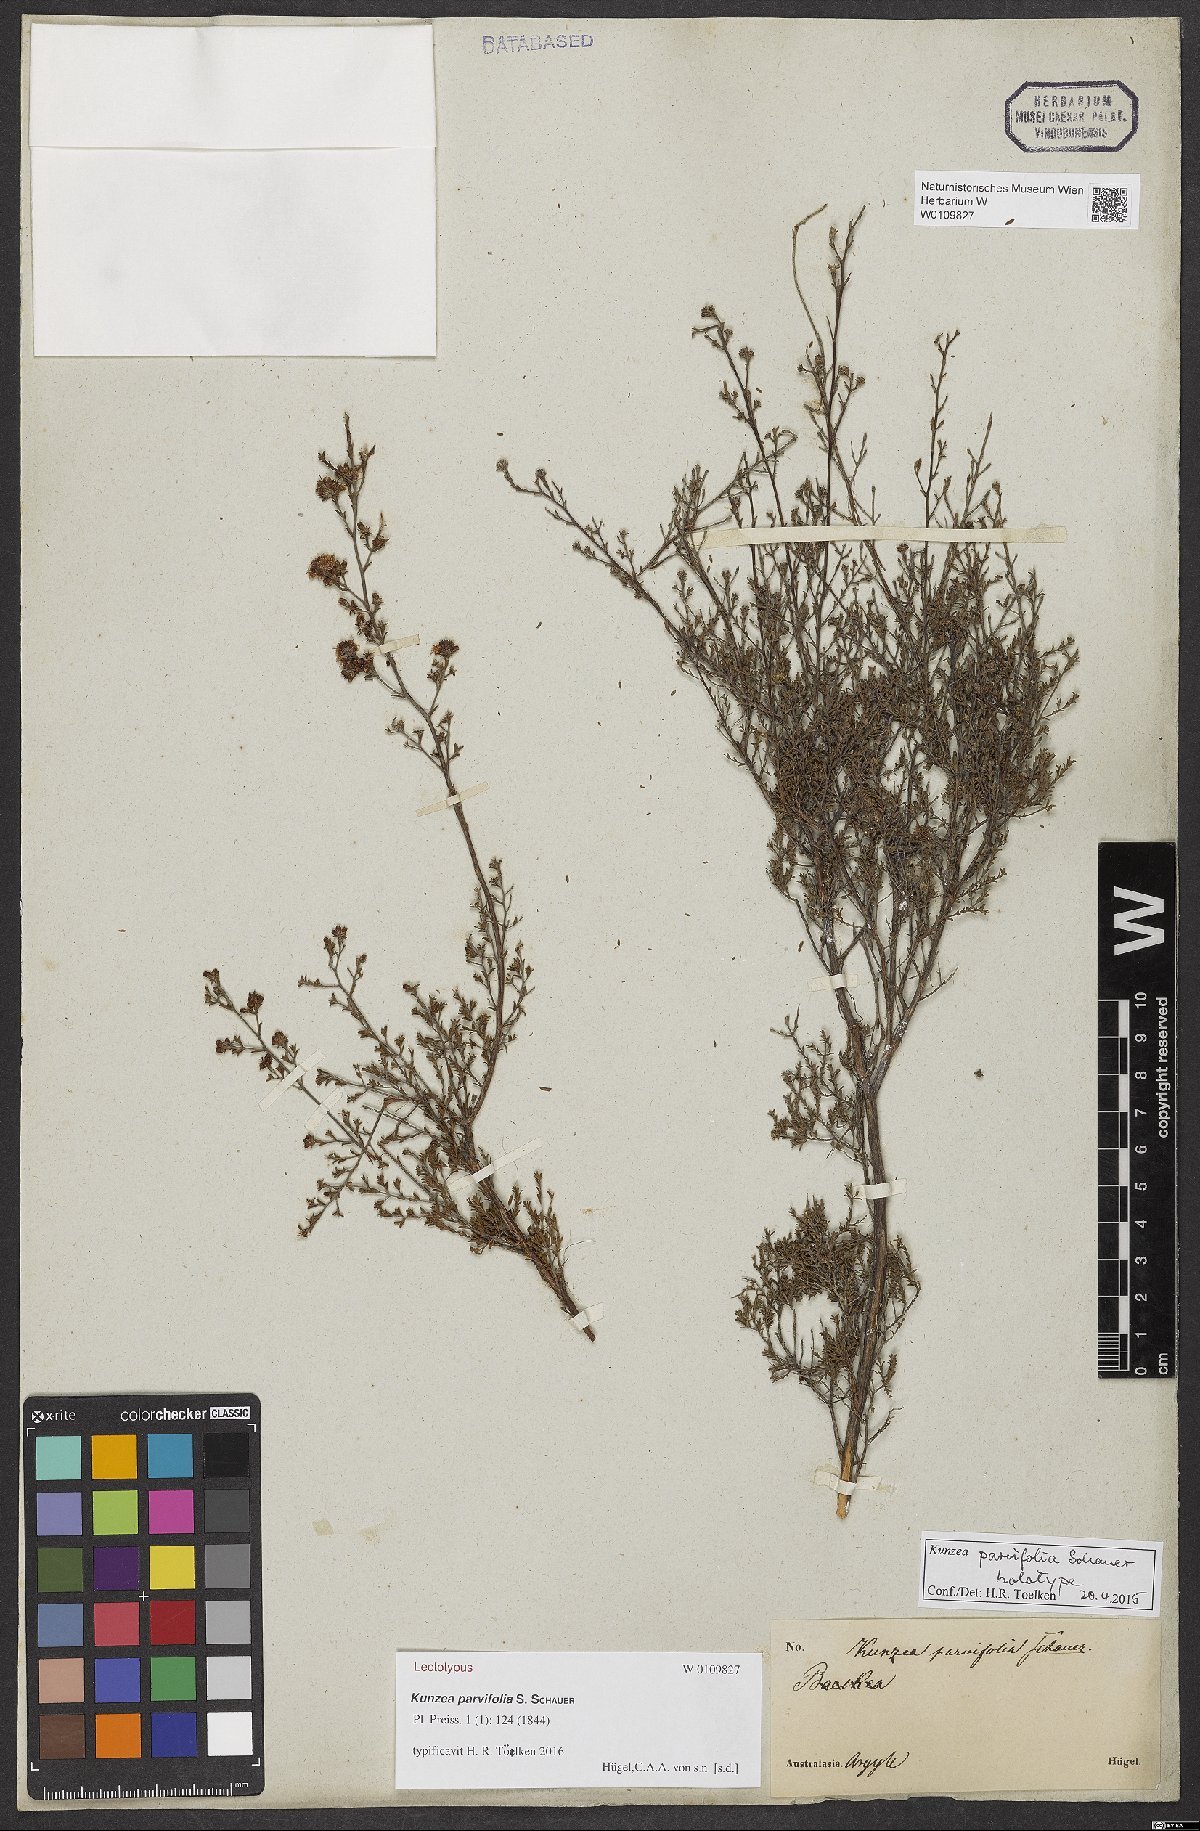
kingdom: Plantae
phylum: Tracheophyta
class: Magnoliopsida
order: Myrtales
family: Myrtaceae
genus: Kunzea
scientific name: Kunzea parvifolia
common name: Violet kunzea
